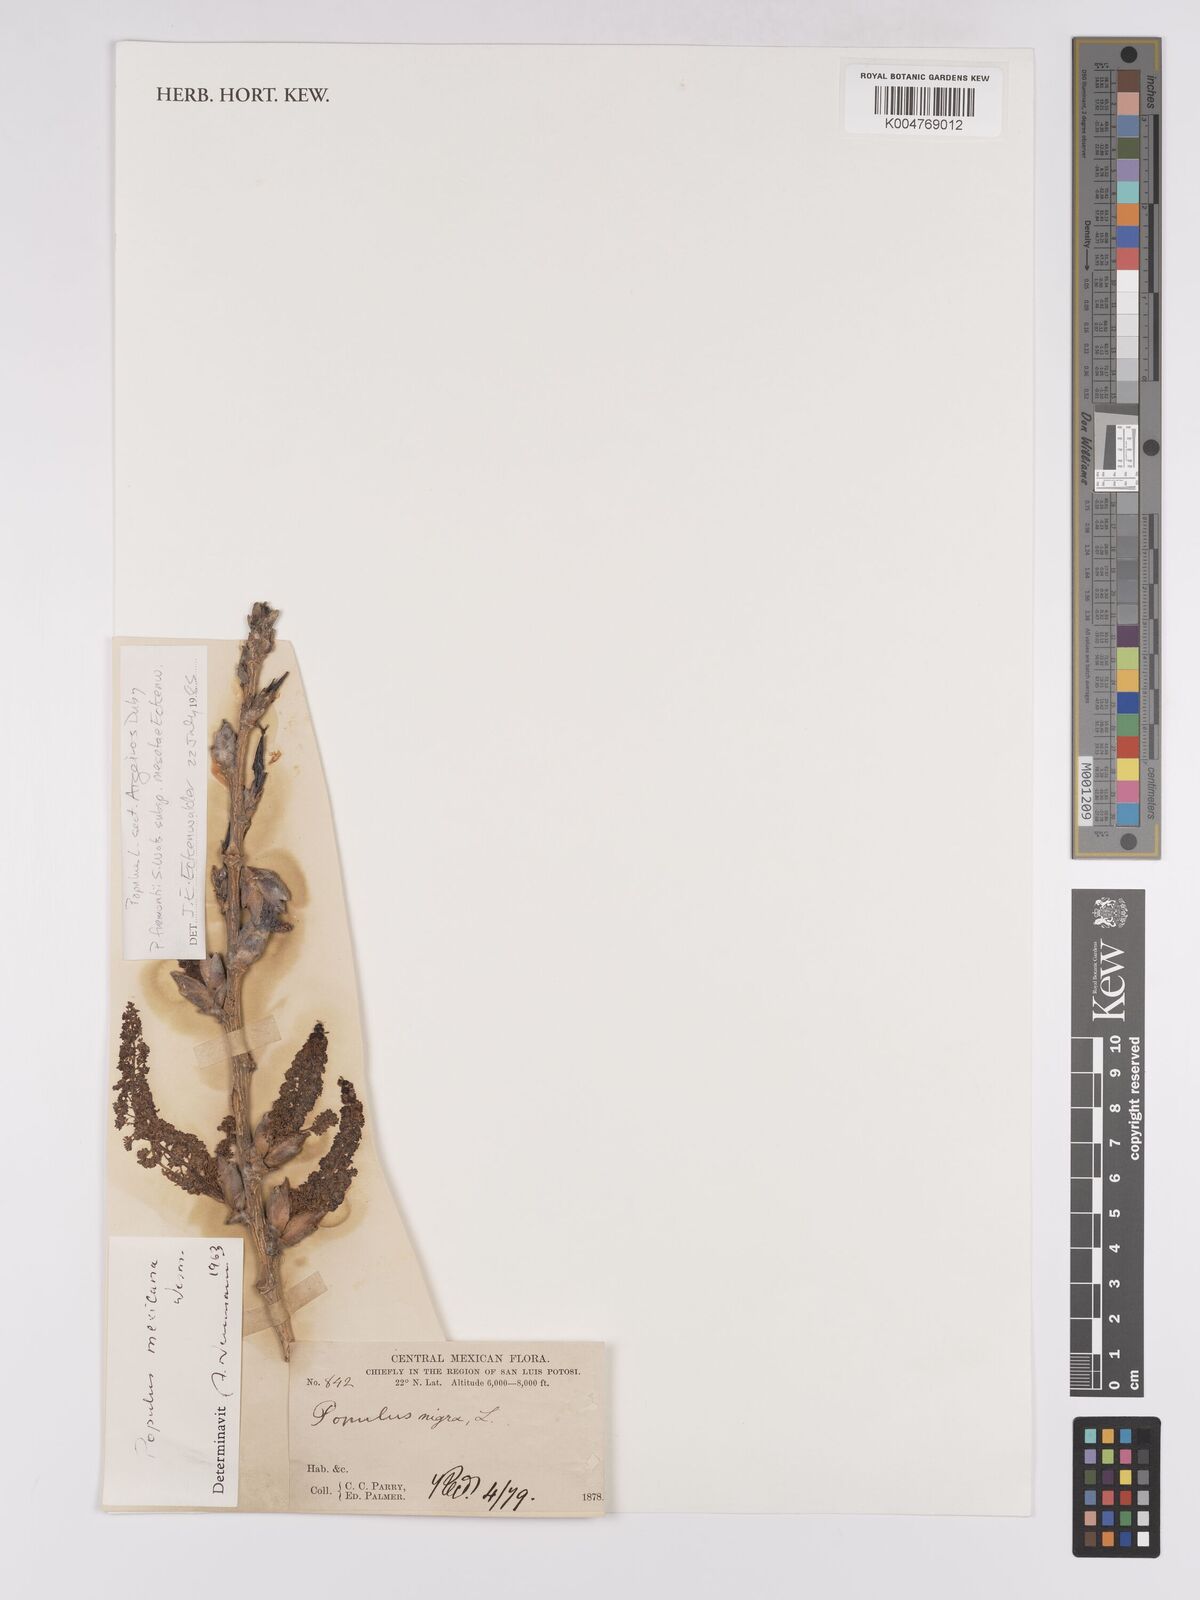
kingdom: Plantae
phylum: Tracheophyta
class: Magnoliopsida
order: Malpighiales
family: Salicaceae
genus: Populus
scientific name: Populus mexicana
